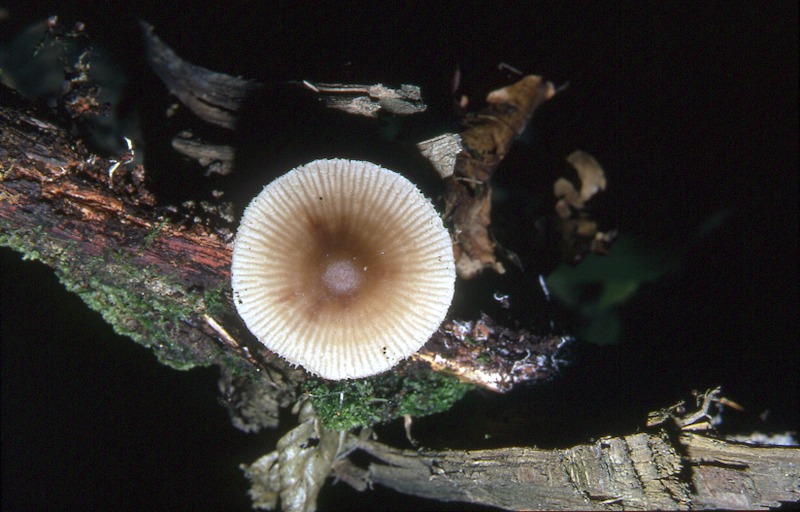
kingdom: Fungi
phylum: Basidiomycota
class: Agaricomycetes
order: Agaricales
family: Mycenaceae
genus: Mycena
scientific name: Mycena laevigata
